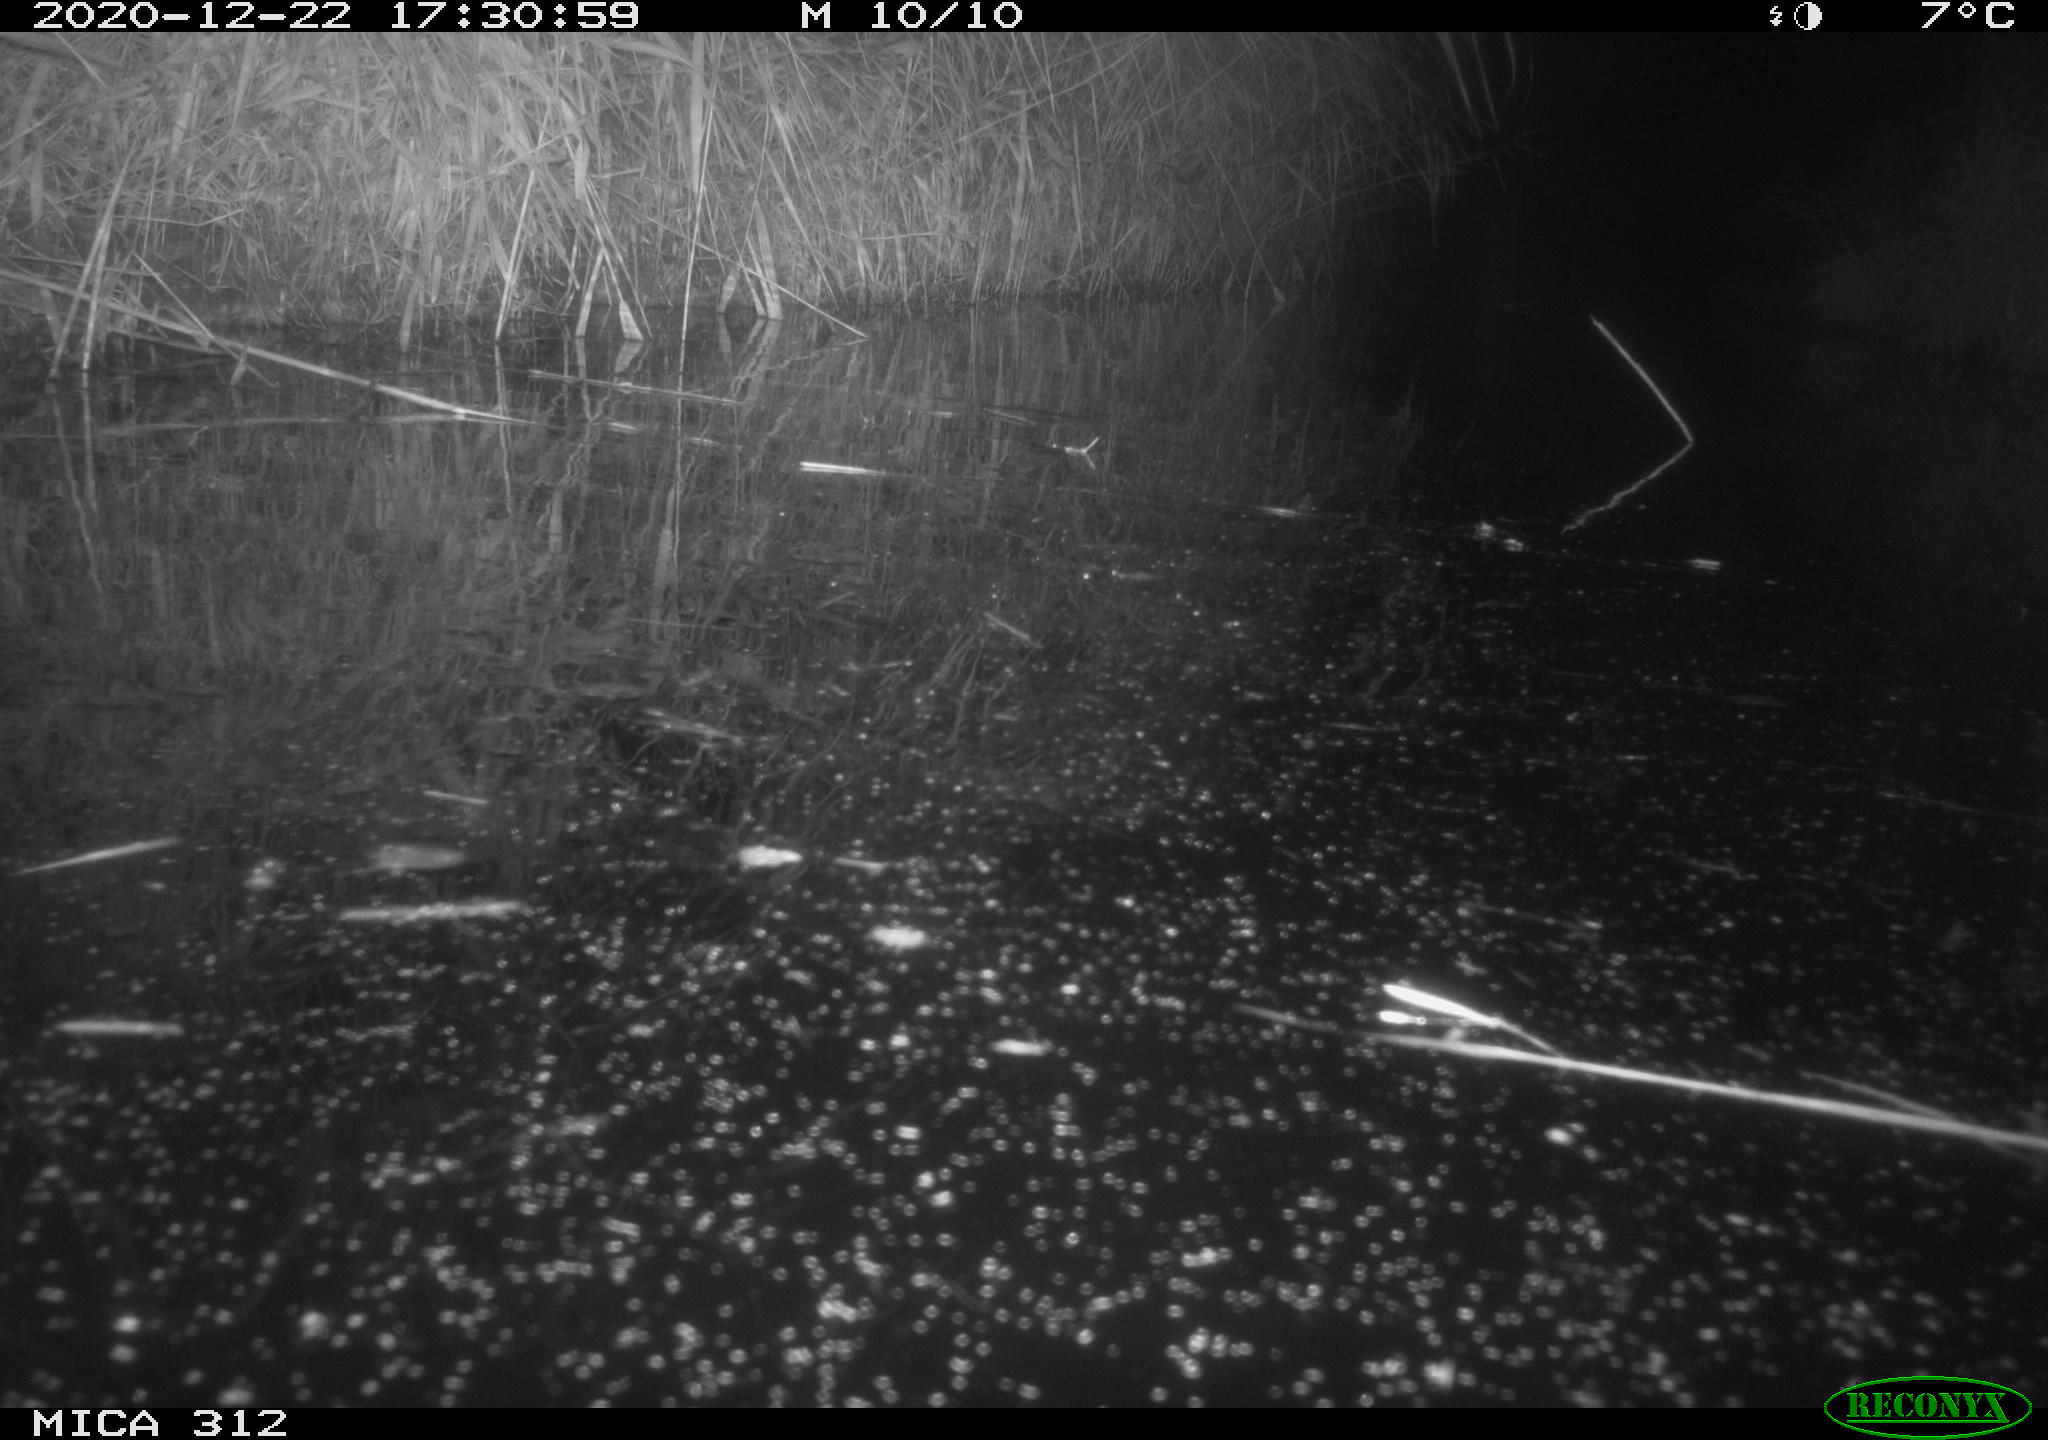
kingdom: Animalia
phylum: Chordata
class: Mammalia
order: Rodentia
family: Muridae
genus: Rattus
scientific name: Rattus norvegicus
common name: Brown rat
